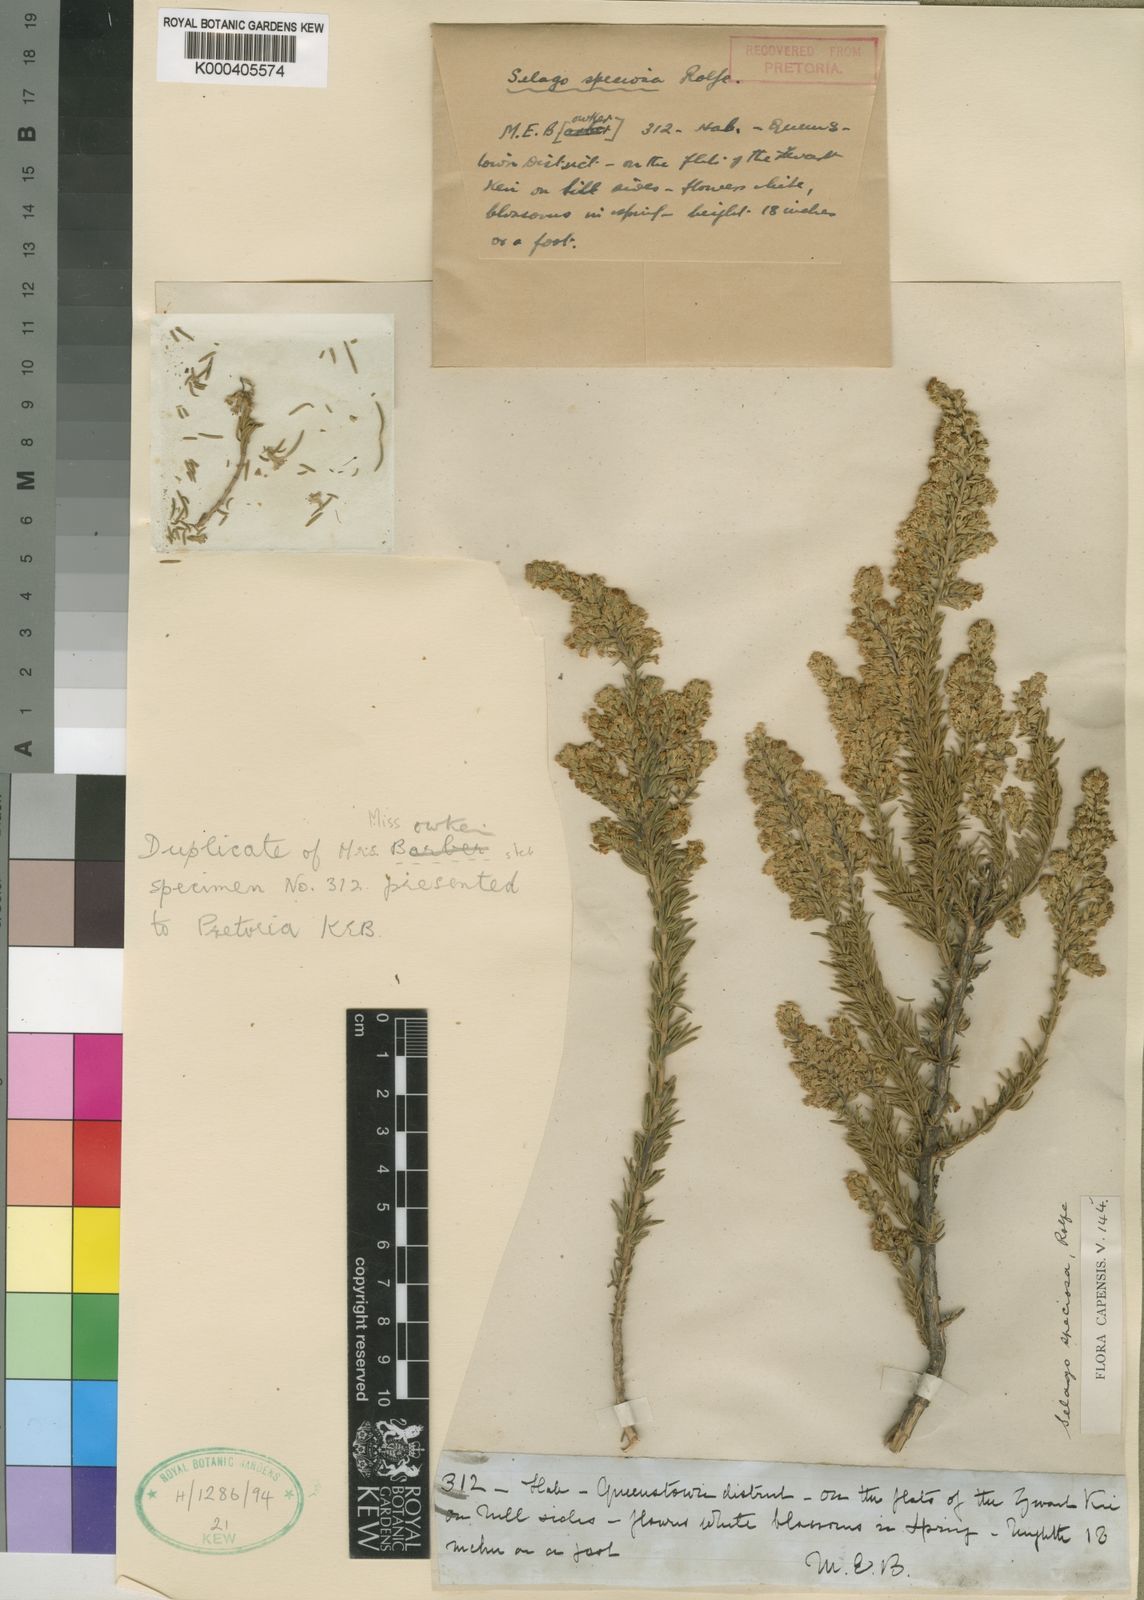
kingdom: Plantae
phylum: Tracheophyta
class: Magnoliopsida
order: Lamiales
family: Scrophulariaceae
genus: Selago
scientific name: Selago speciosa
